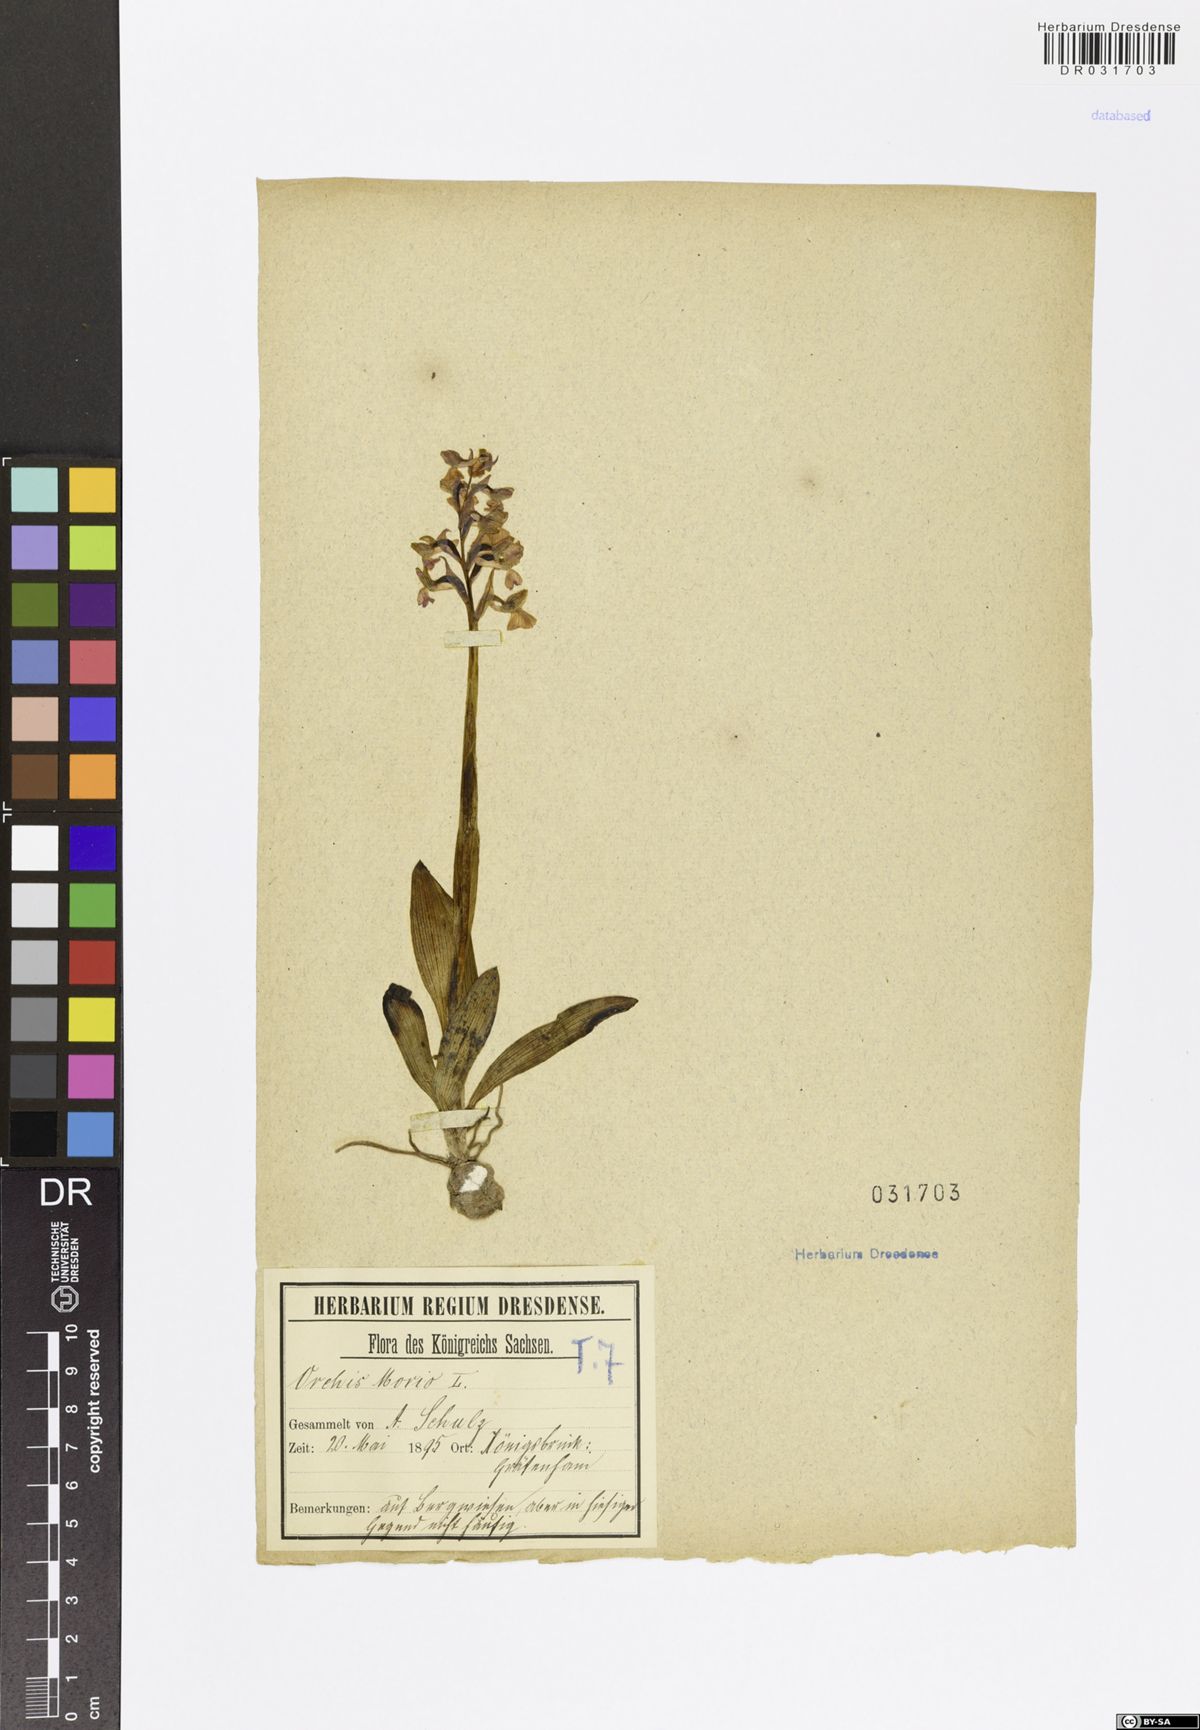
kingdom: Plantae
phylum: Tracheophyta
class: Liliopsida
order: Asparagales
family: Orchidaceae
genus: Anacamptis
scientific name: Anacamptis morio
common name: Green-winged orchid
